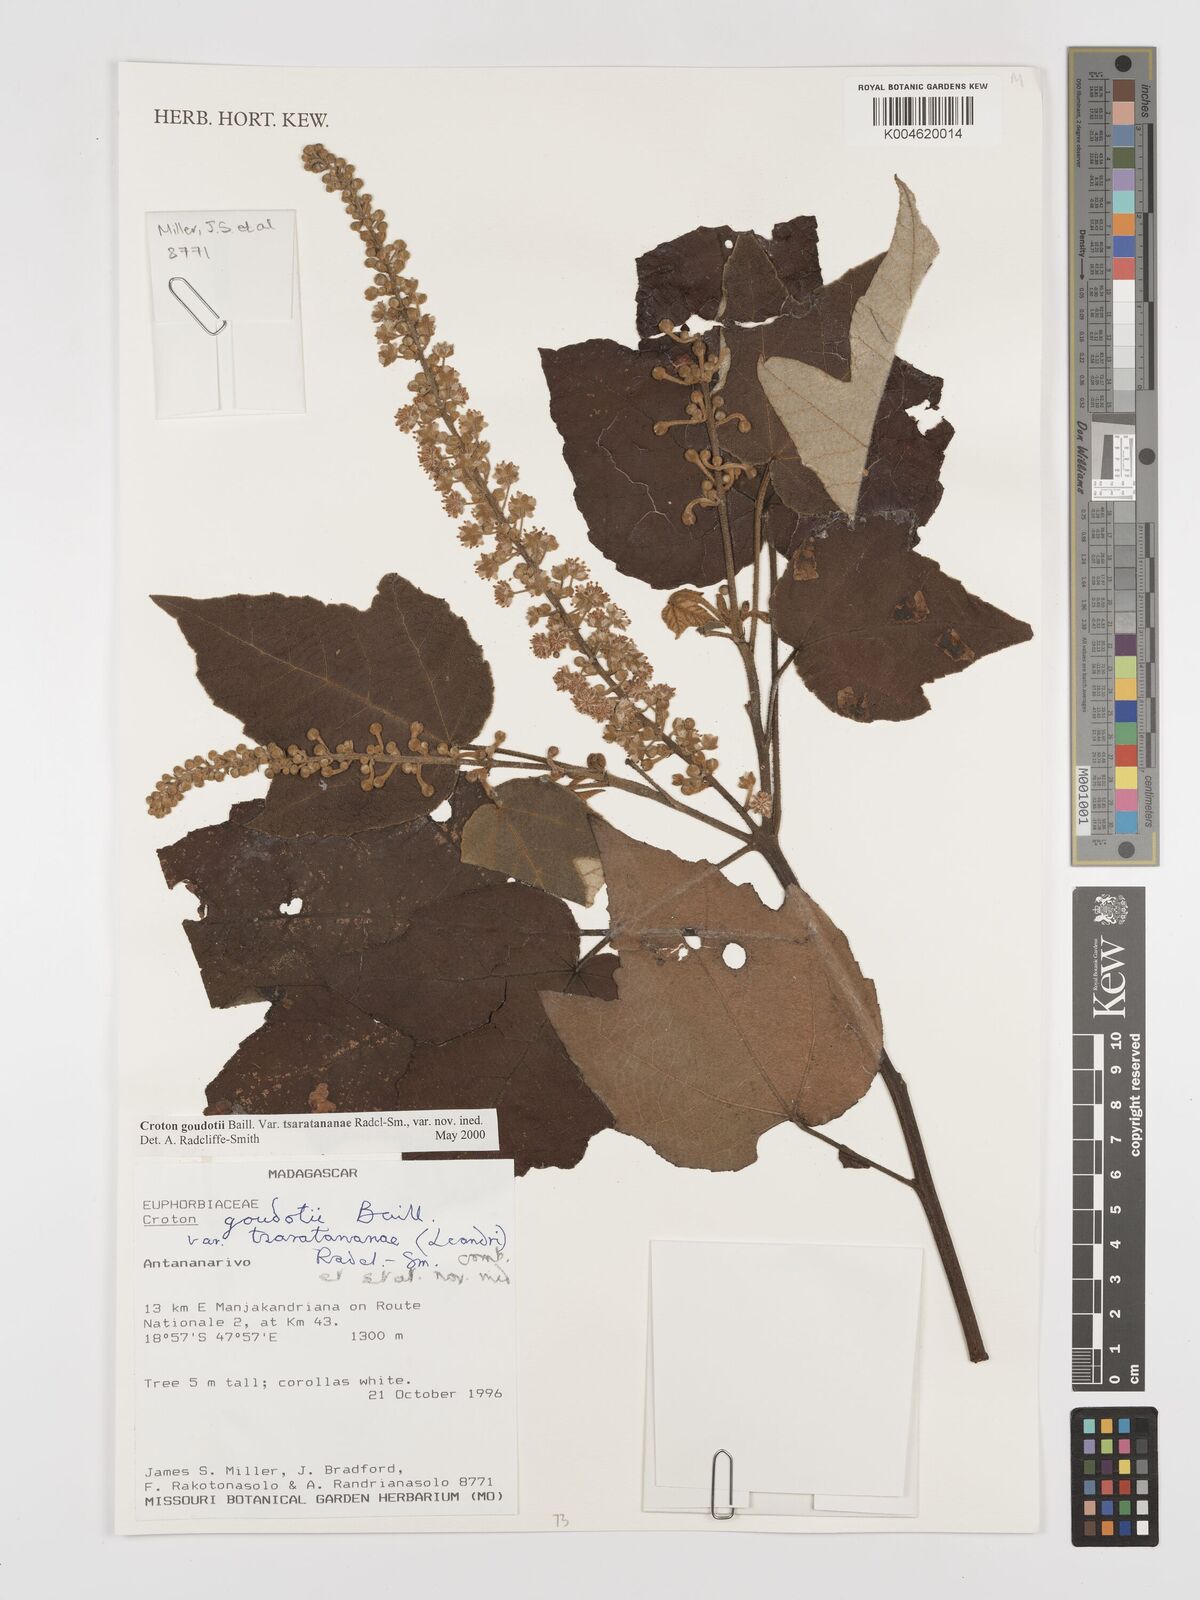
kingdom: Plantae
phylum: Tracheophyta
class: Magnoliopsida
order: Malpighiales
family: Euphorbiaceae
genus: Croton
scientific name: Croton goudotii
